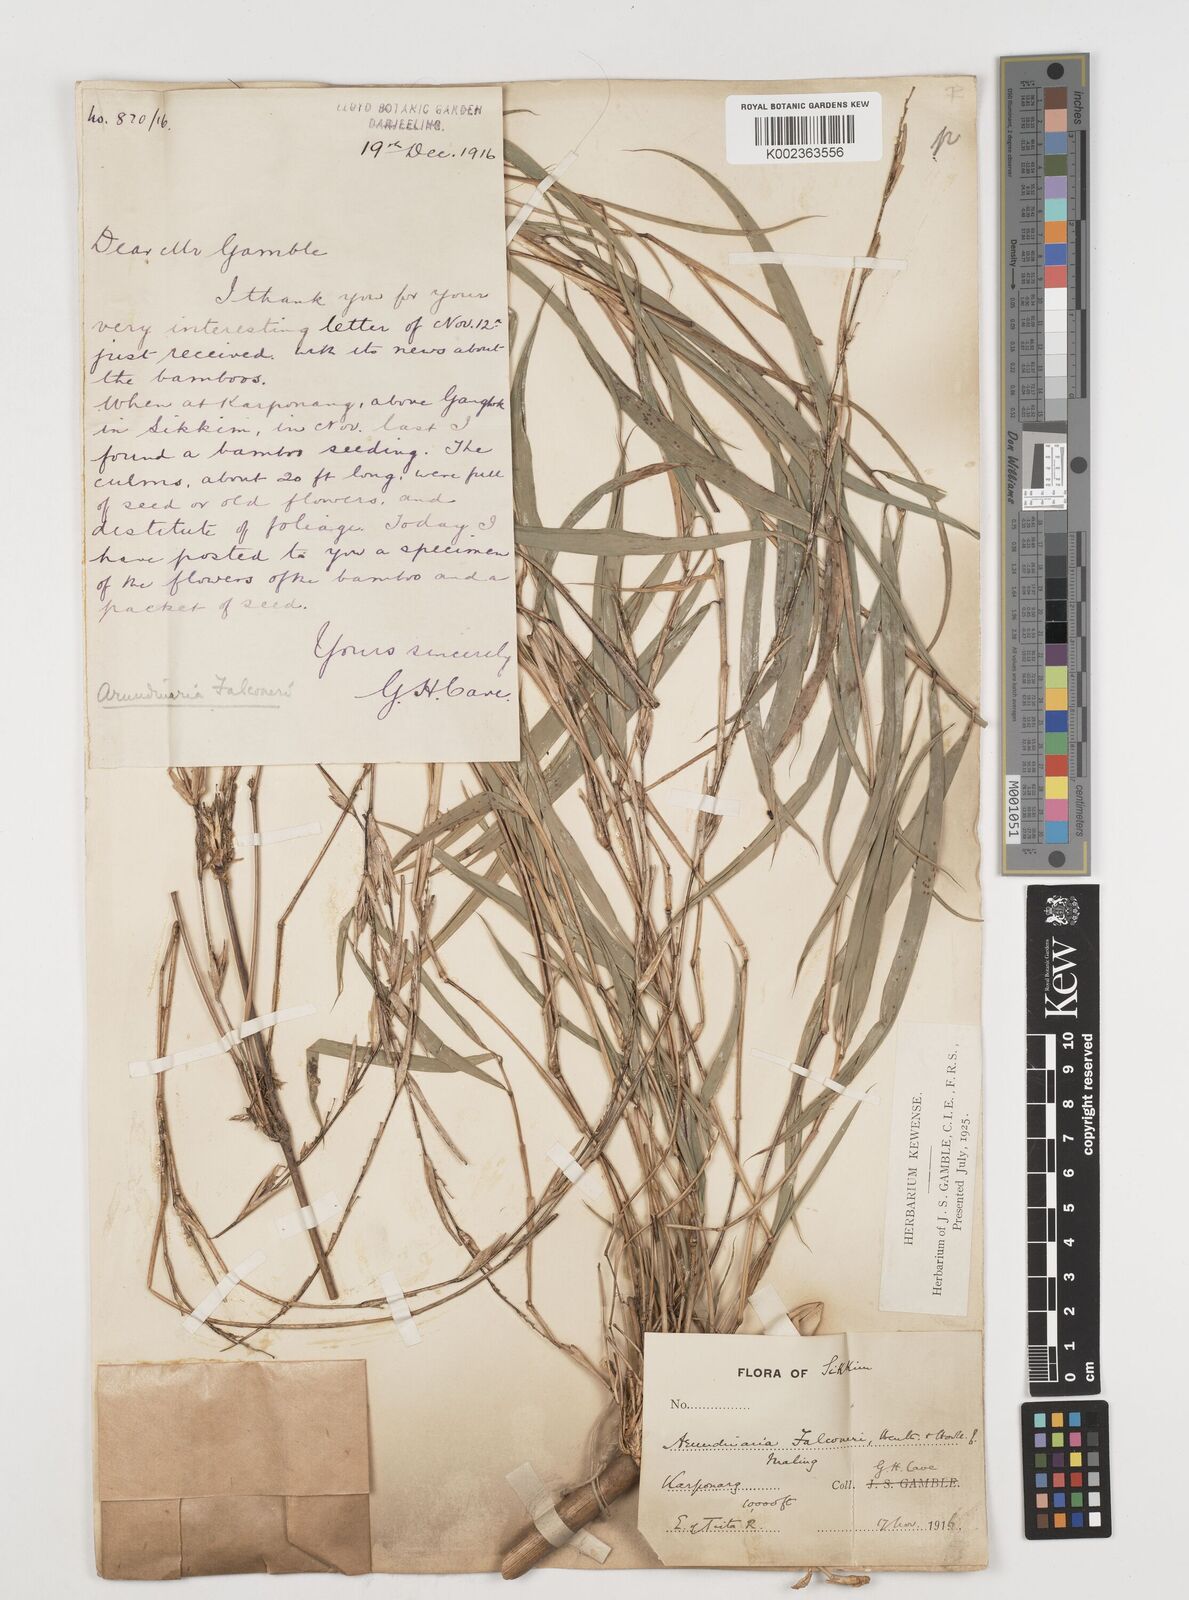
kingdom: Plantae
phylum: Tracheophyta
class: Liliopsida
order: Poales
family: Poaceae
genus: Himalayacalamus
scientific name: Himalayacalamus falconeri
